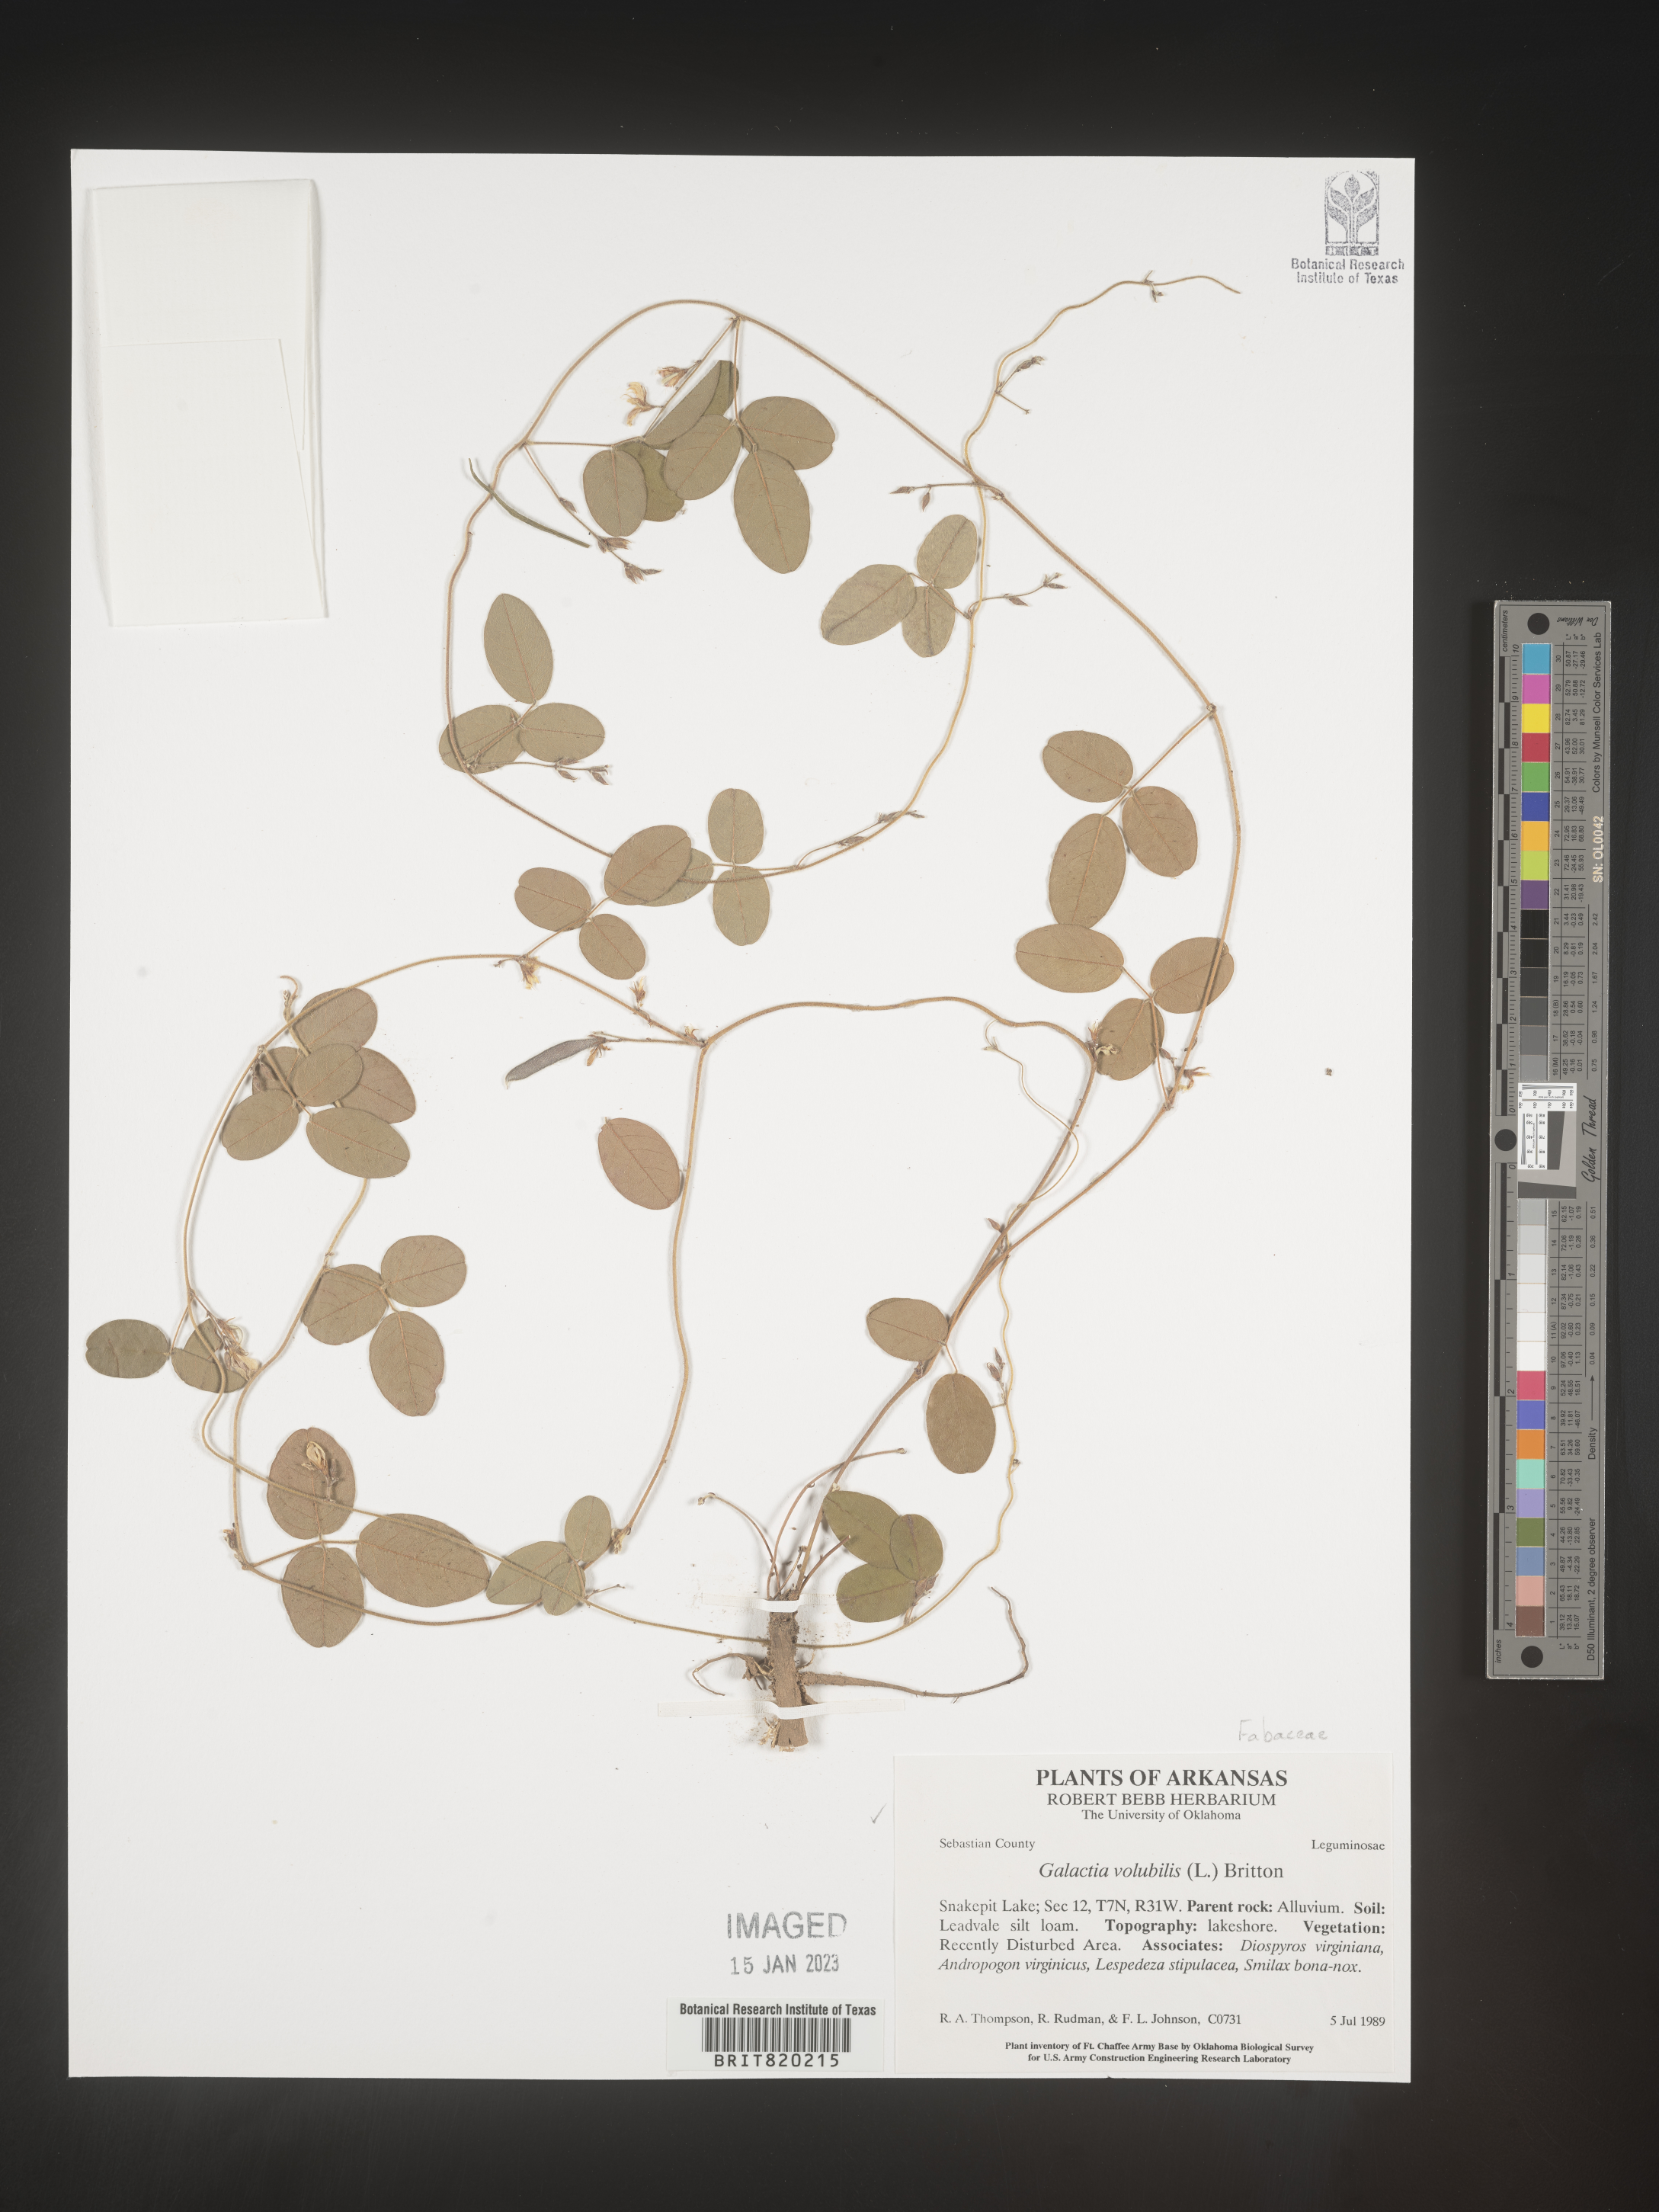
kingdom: Plantae
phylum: Tracheophyta
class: Magnoliopsida
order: Fabales
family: Fabaceae
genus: Galactia
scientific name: Galactia volubilis
